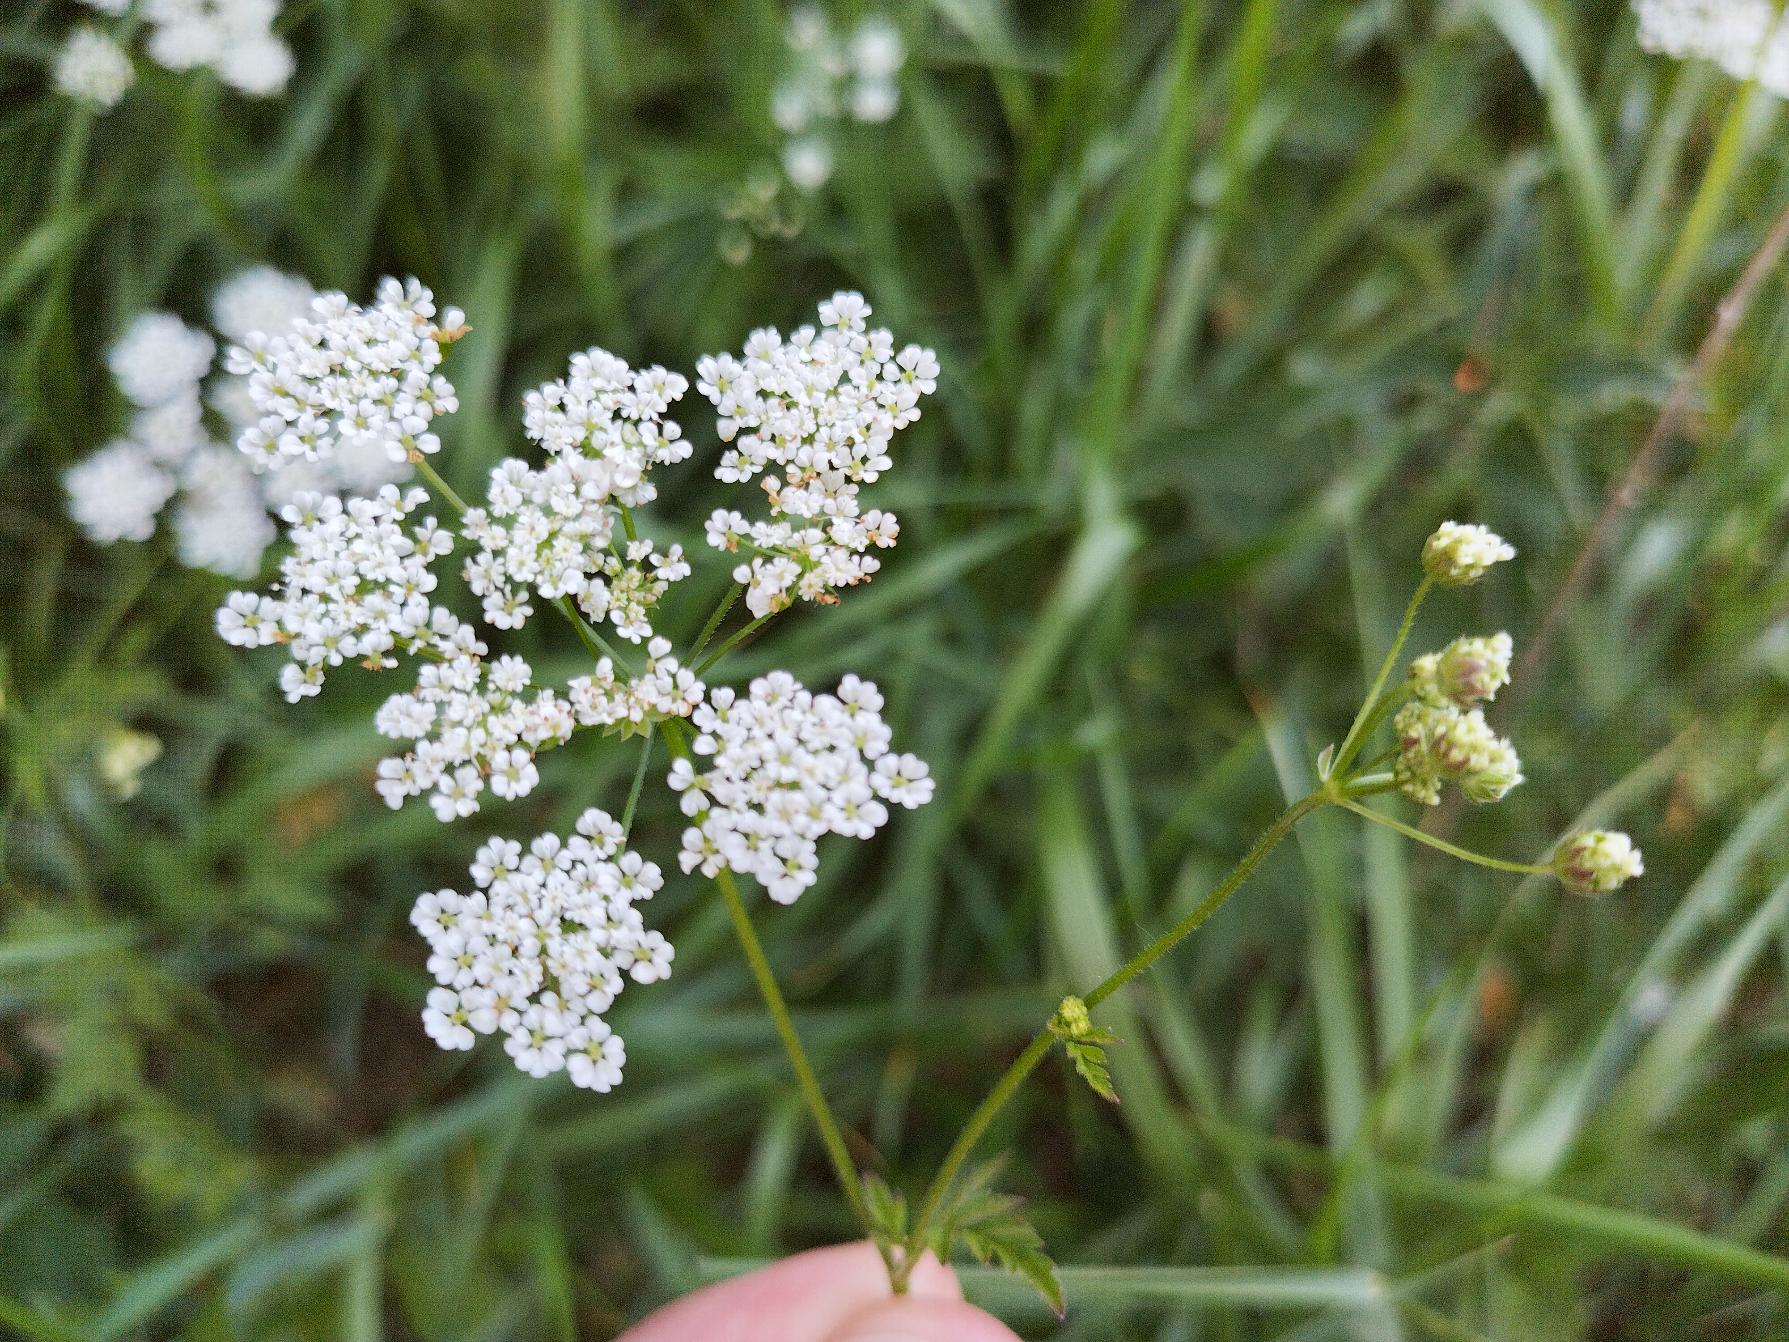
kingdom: Plantae
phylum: Tracheophyta
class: Magnoliopsida
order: Apiales
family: Apiaceae
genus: Chaerophyllum
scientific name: Chaerophyllum temulum
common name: Almindelig hulsvøb
